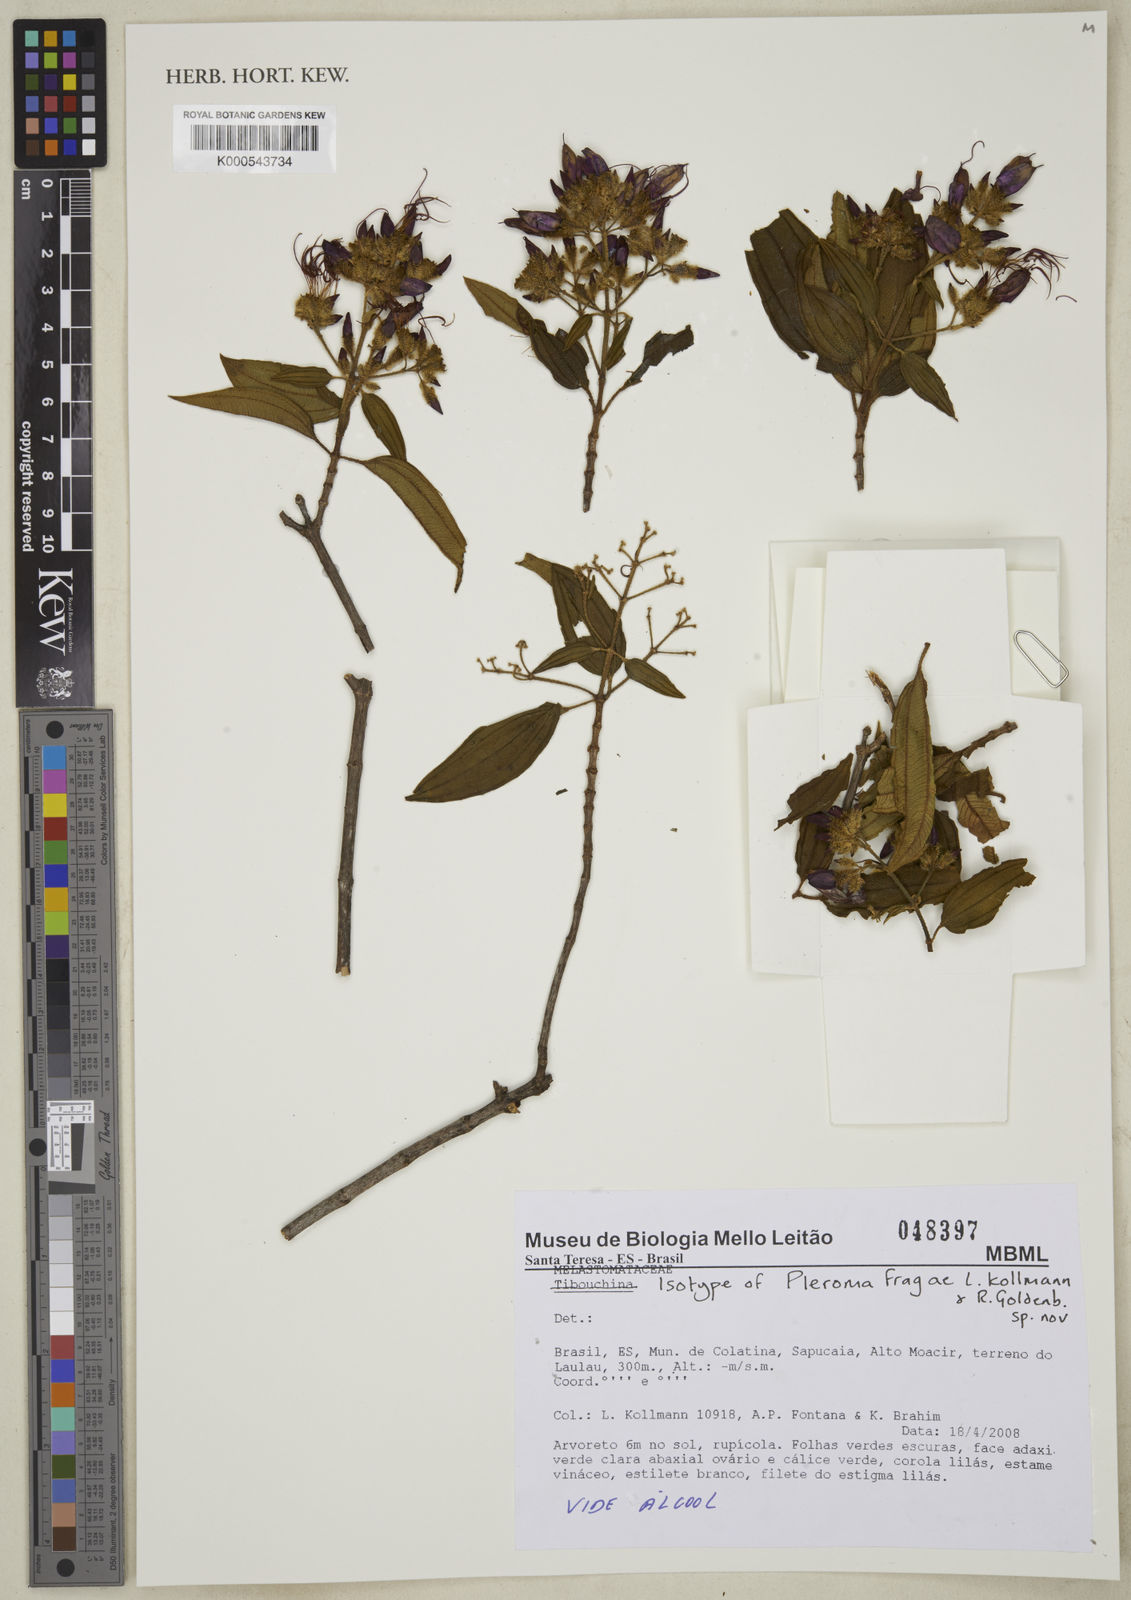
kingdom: Plantae
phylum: Tracheophyta
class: Magnoliopsida
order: Myrtales
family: Melastomataceae
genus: Pleroma
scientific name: Pleroma fragae
